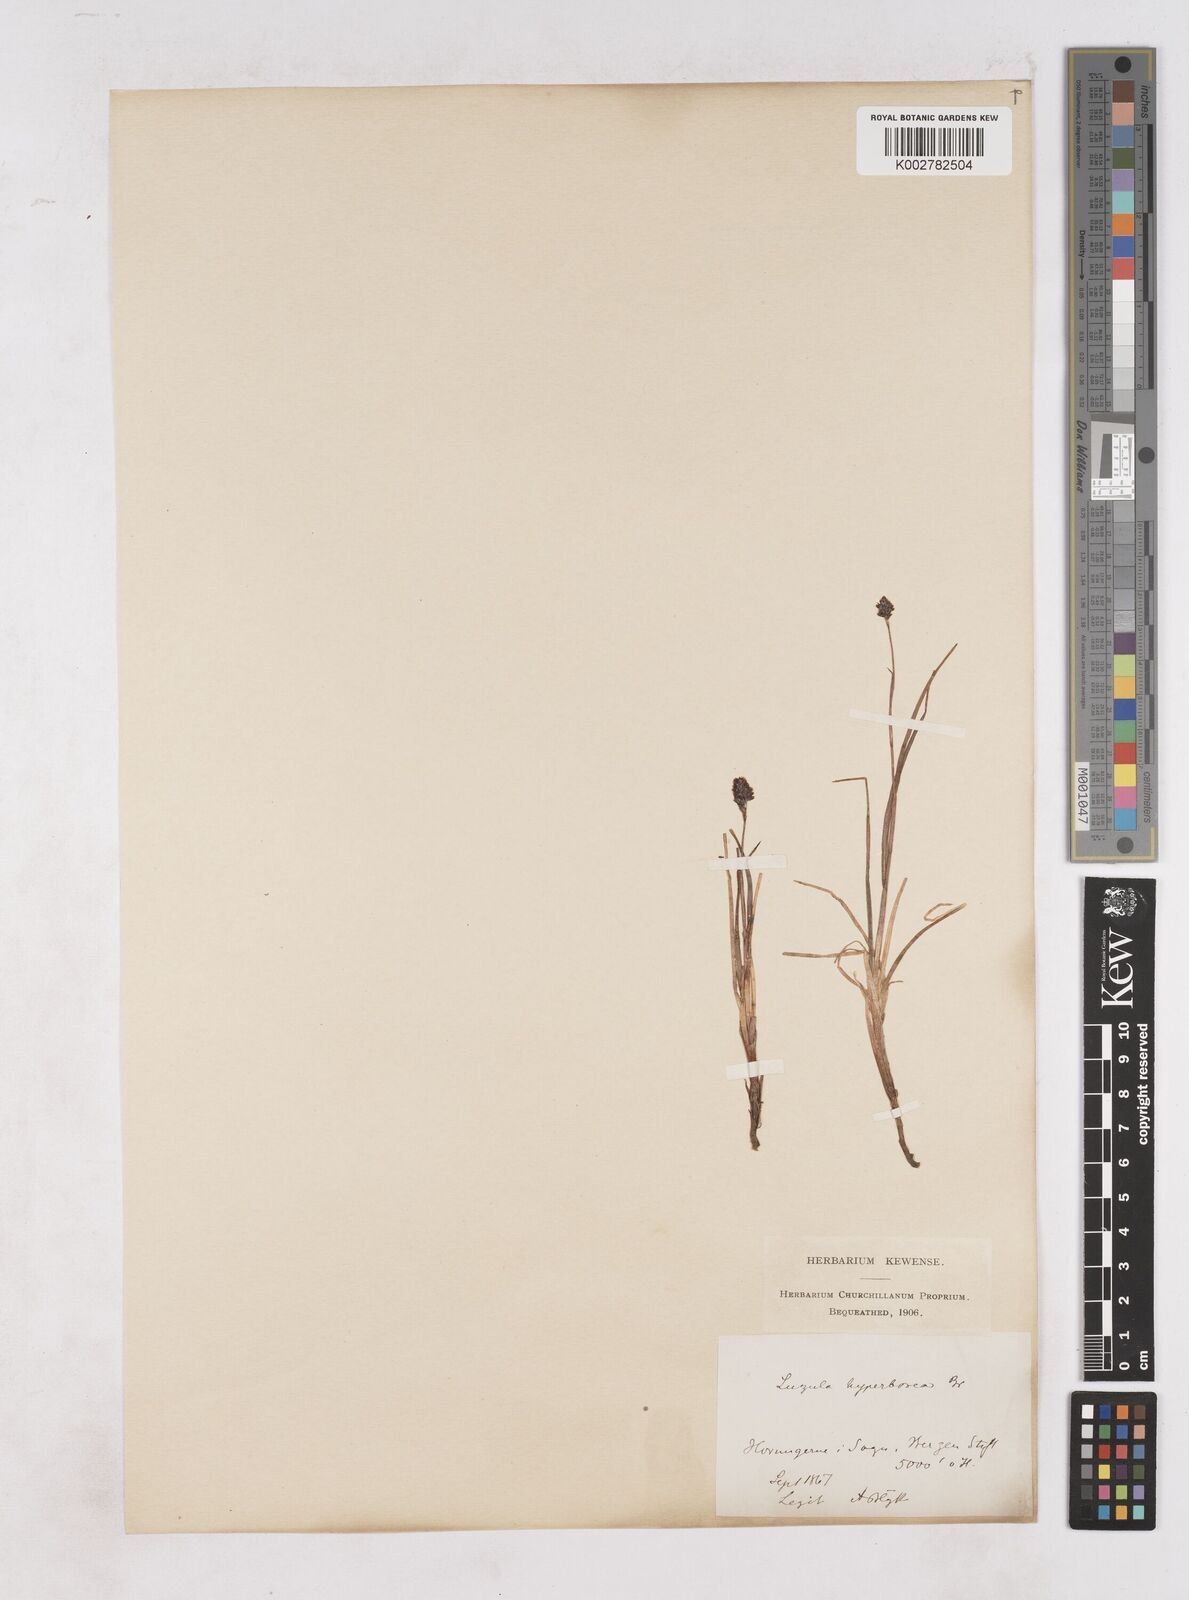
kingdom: Plantae
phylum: Tracheophyta
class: Liliopsida
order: Poales
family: Juncaceae
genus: Luzula
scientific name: Luzula arcuata
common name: Curved wood-rush
